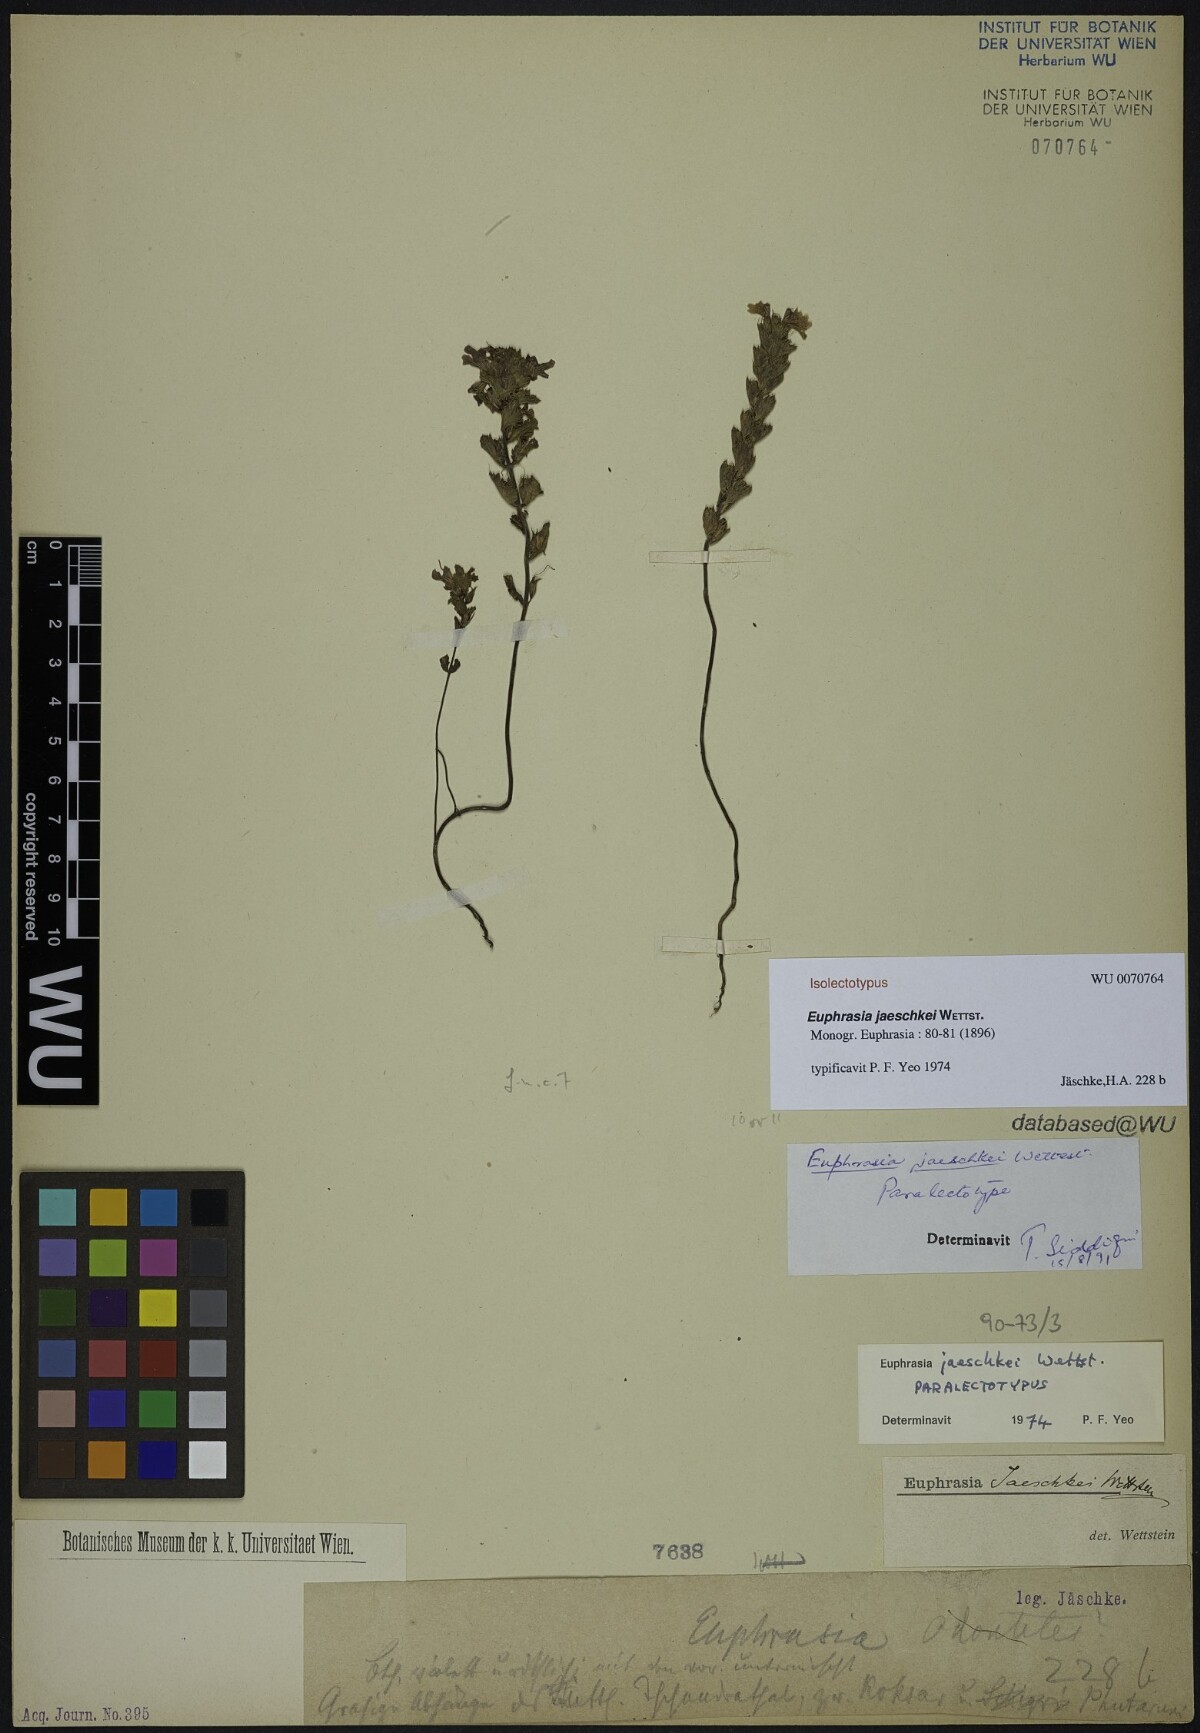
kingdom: Plantae
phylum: Tracheophyta
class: Magnoliopsida
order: Lamiales
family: Orobanchaceae
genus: Euphrasia
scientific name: Euphrasia jaeschkei
